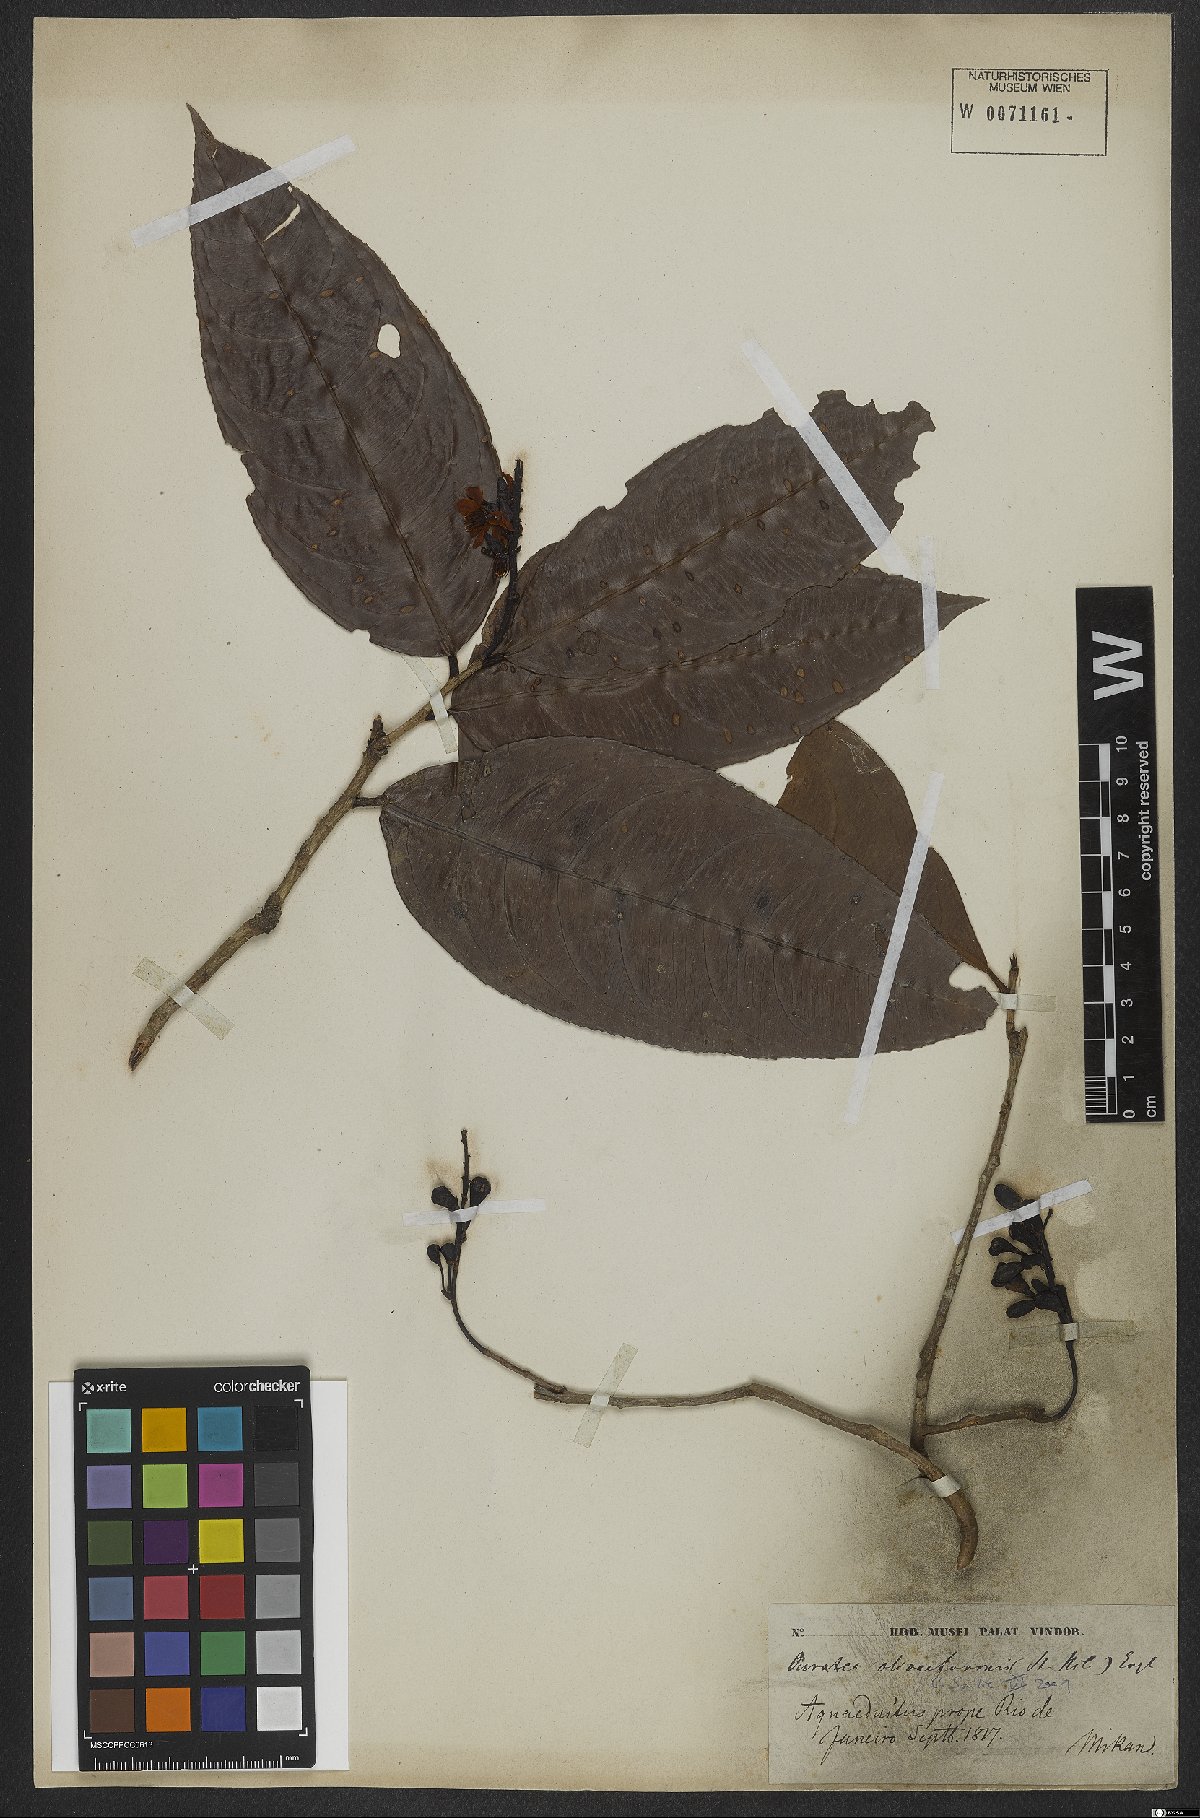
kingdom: Plantae
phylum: Tracheophyta
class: Magnoliopsida
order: Malpighiales
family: Ochnaceae
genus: Ouratea
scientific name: Ouratea oliviformis
